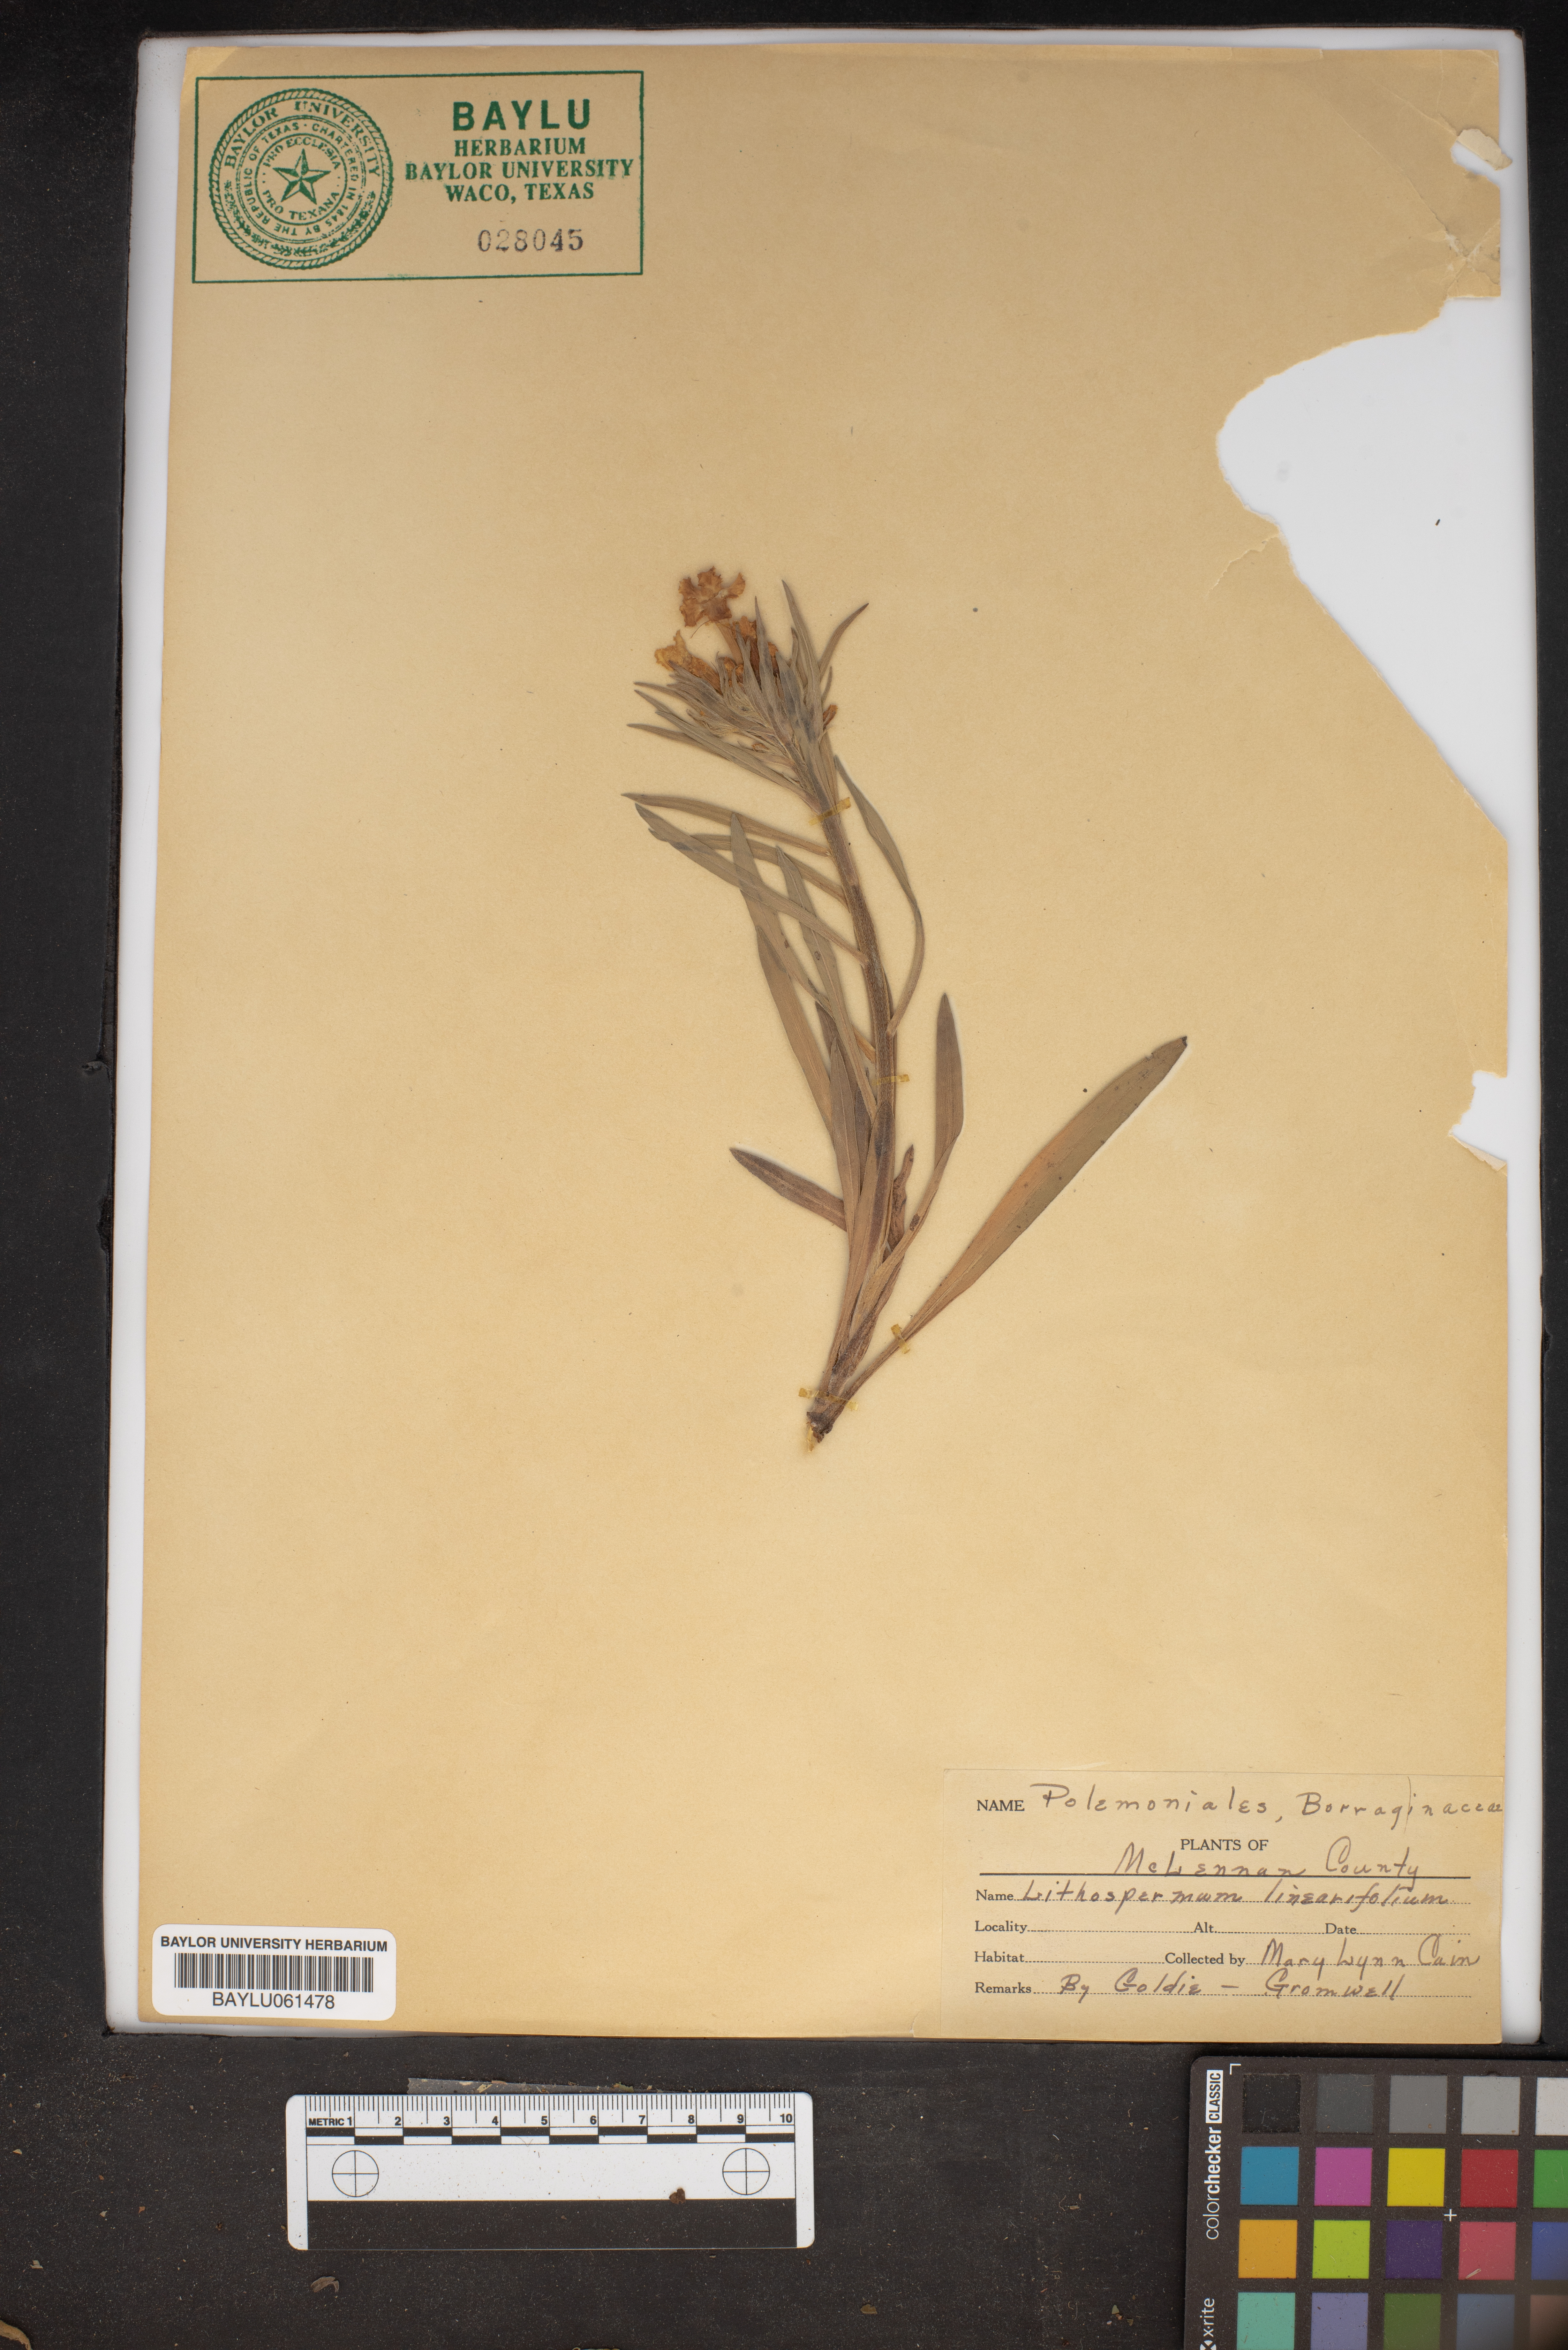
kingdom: Plantae
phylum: Tracheophyta
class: Magnoliopsida
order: Boraginales
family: Boraginaceae
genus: Lithospermum
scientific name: Lithospermum incisum
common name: Fringed gromwell
